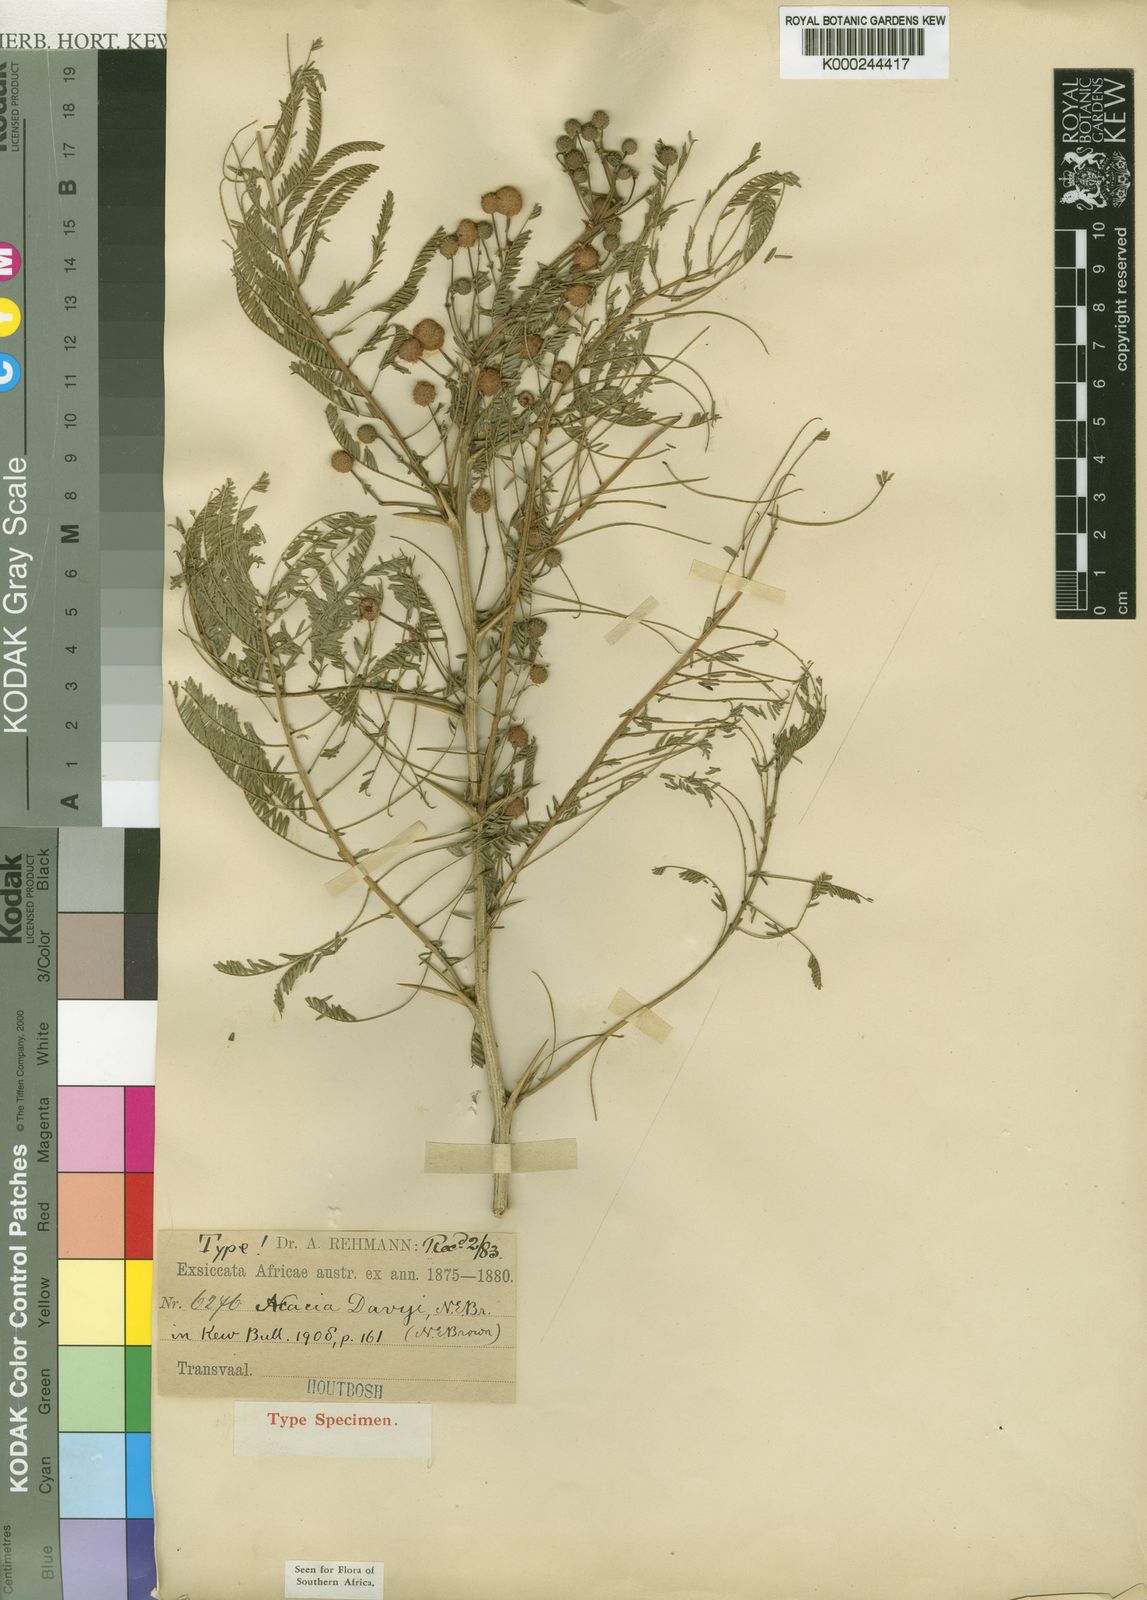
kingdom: Plantae
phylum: Tracheophyta
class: Magnoliopsida
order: Fabales
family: Fabaceae
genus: Vachellia
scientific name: Vachellia davyi
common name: Cork-bark thorn
